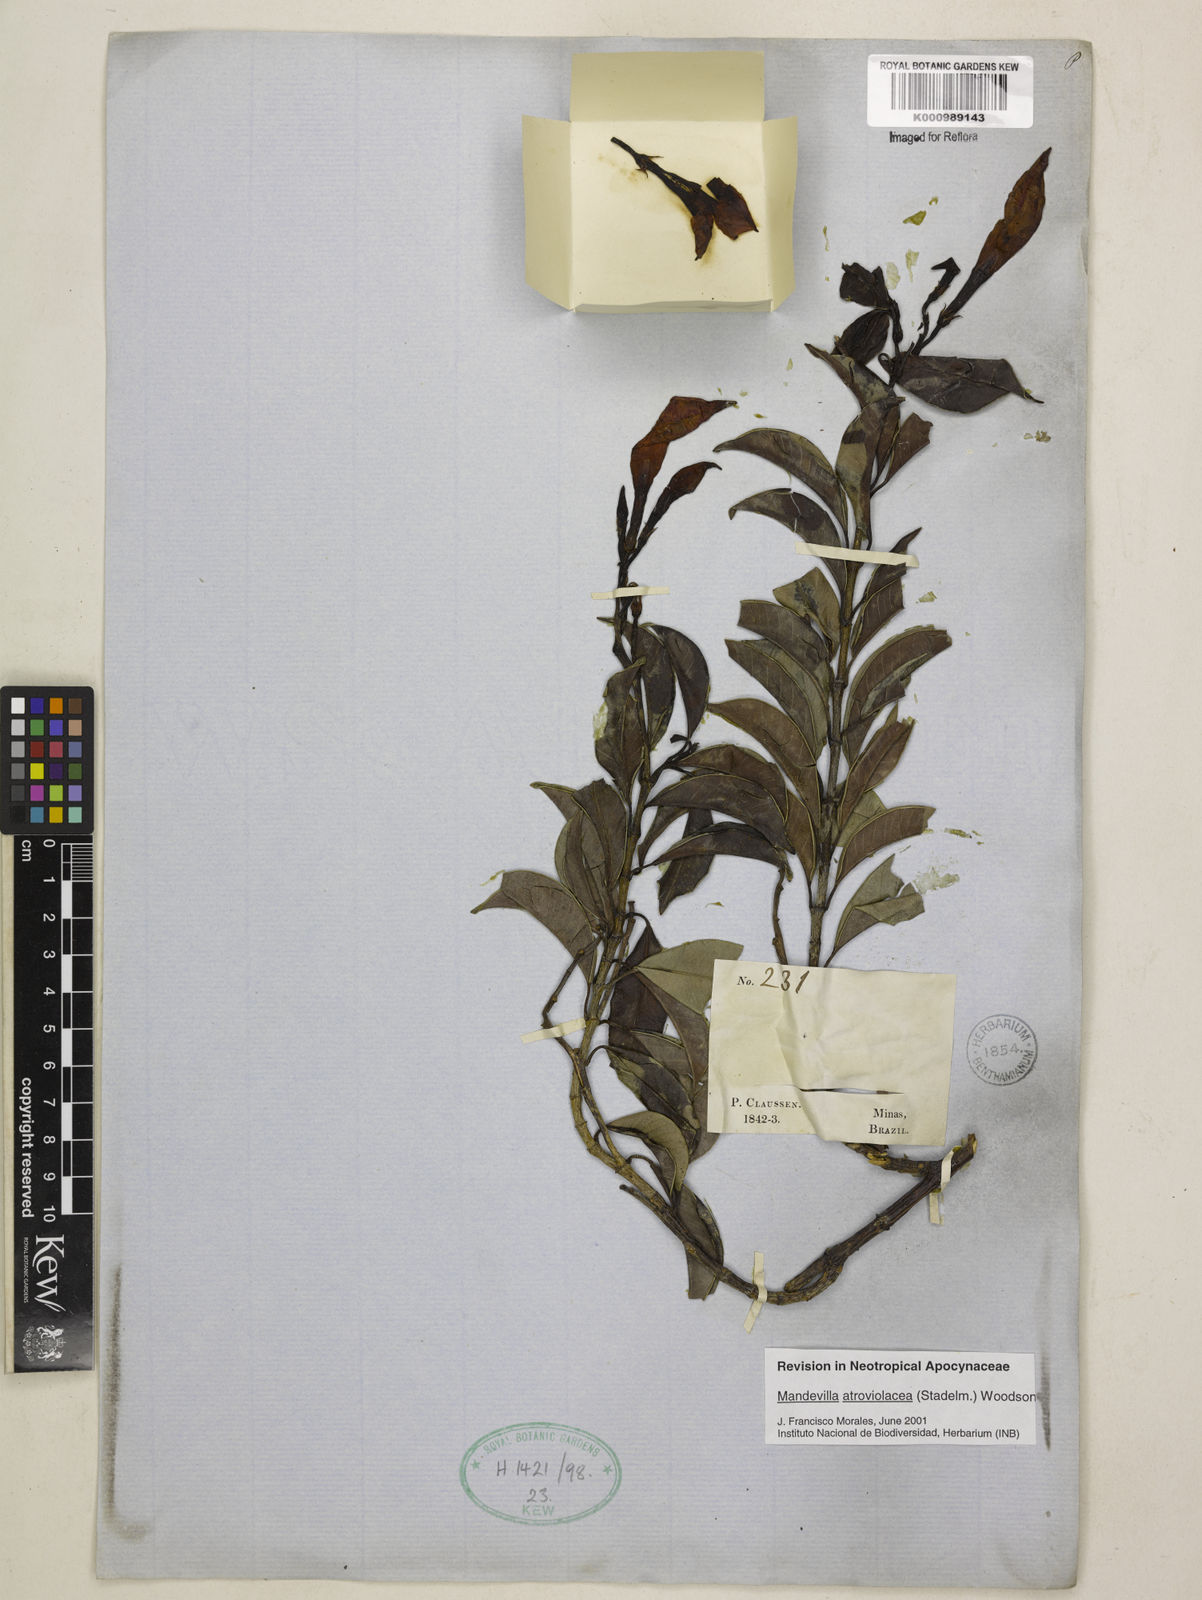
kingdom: Plantae
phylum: Tracheophyta
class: Magnoliopsida
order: Gentianales
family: Apocynaceae
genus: Mandevilla
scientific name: Mandevilla atroviolacea
